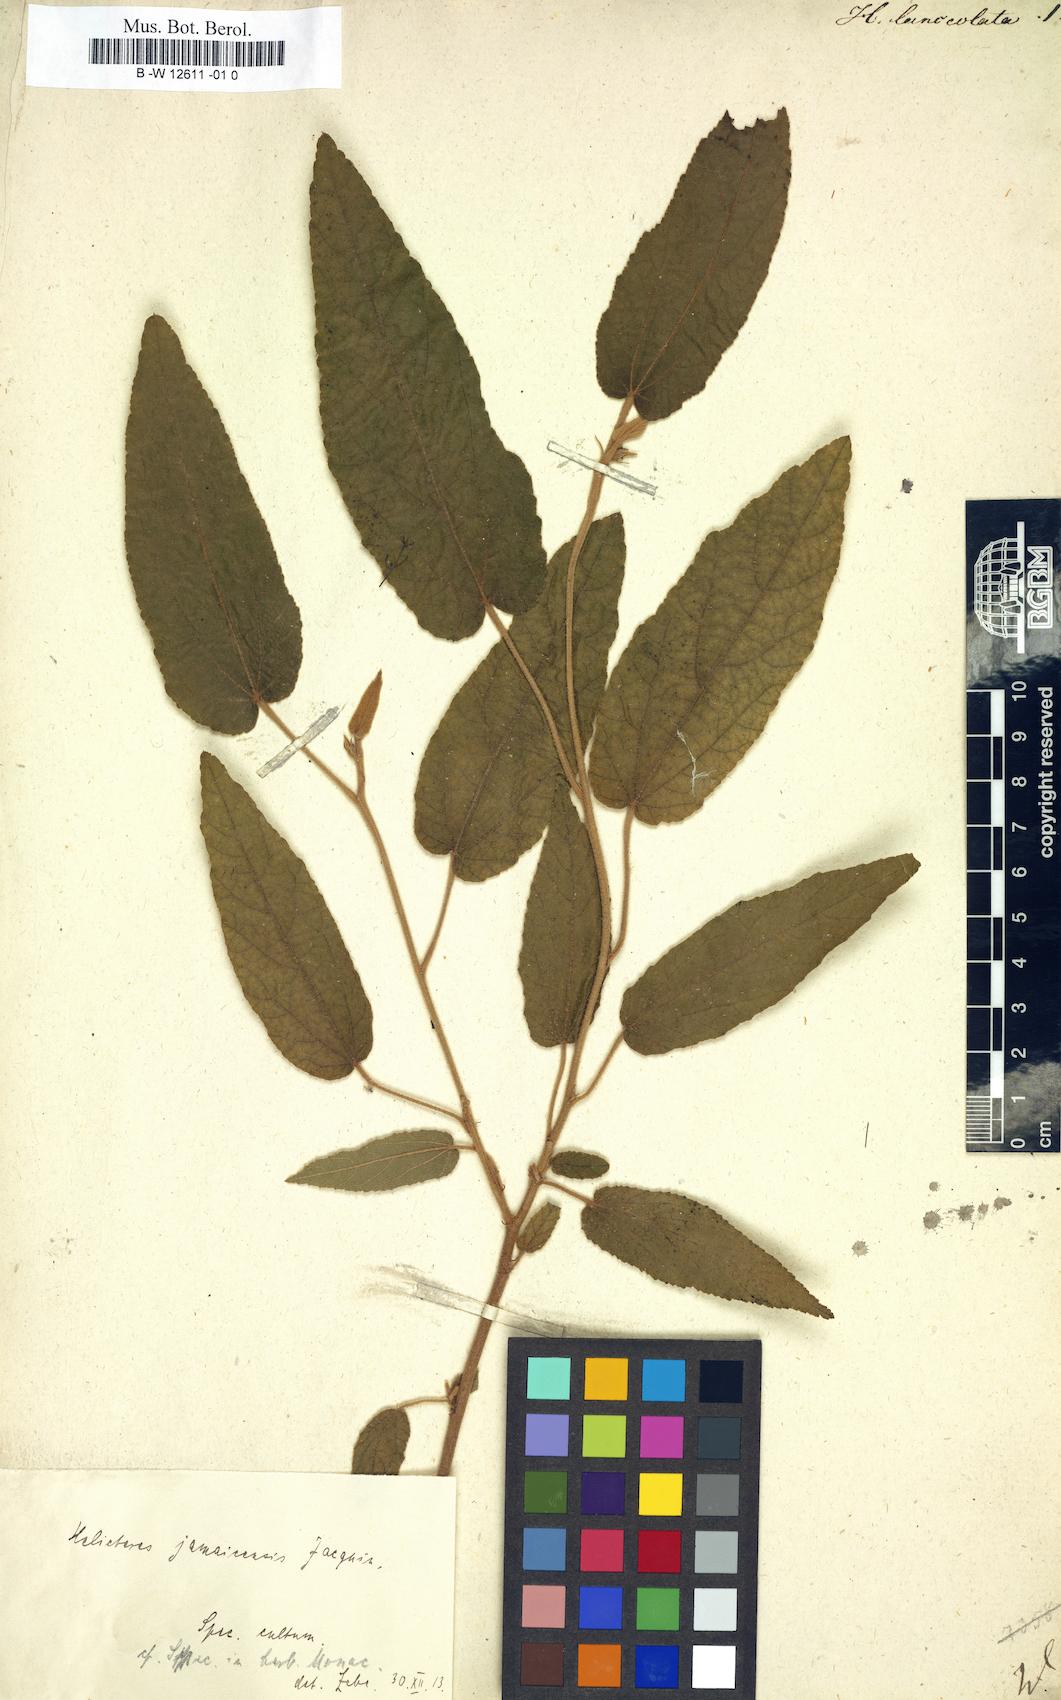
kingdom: Plantae
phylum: Tracheophyta
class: Magnoliopsida
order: Malvales
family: Malvaceae
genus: Helicteres
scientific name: Helicteres lanceolata
